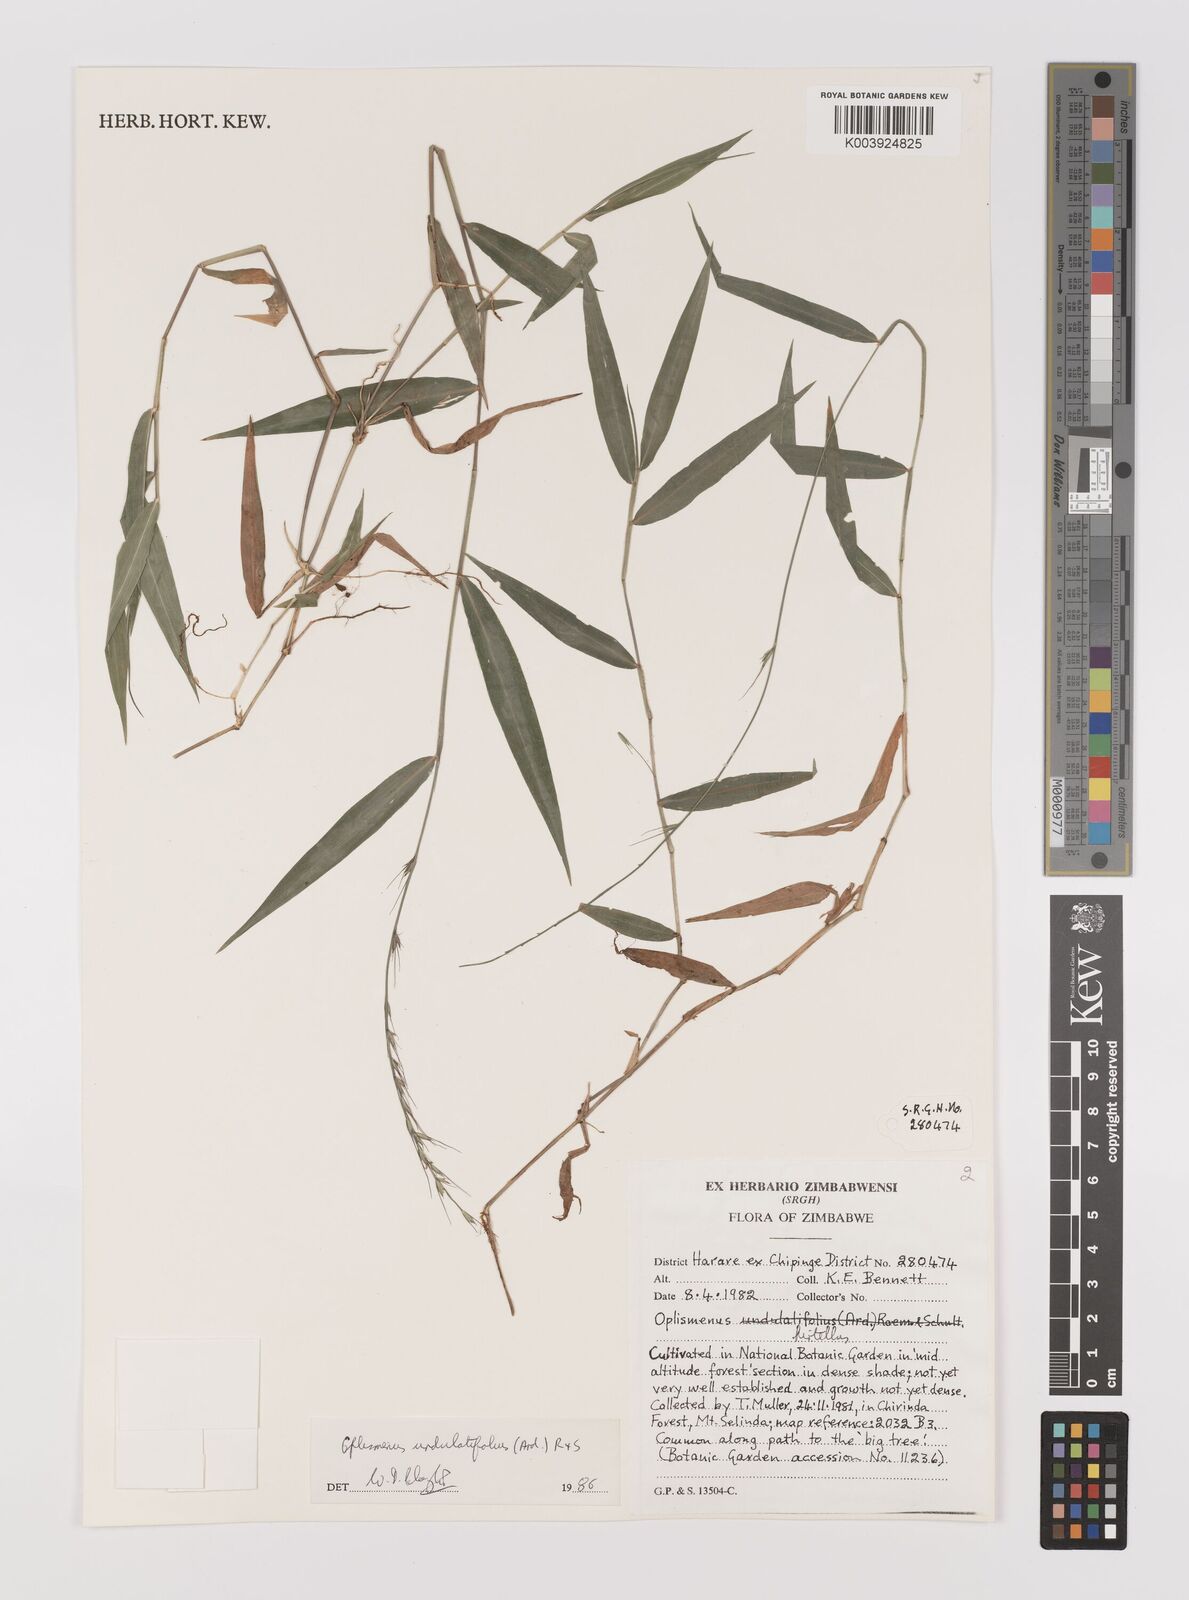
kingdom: Plantae
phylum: Tracheophyta
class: Liliopsida
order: Poales
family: Poaceae
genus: Oplismenus
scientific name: Oplismenus undulatifolius
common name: Wavyleaf basketgrass
